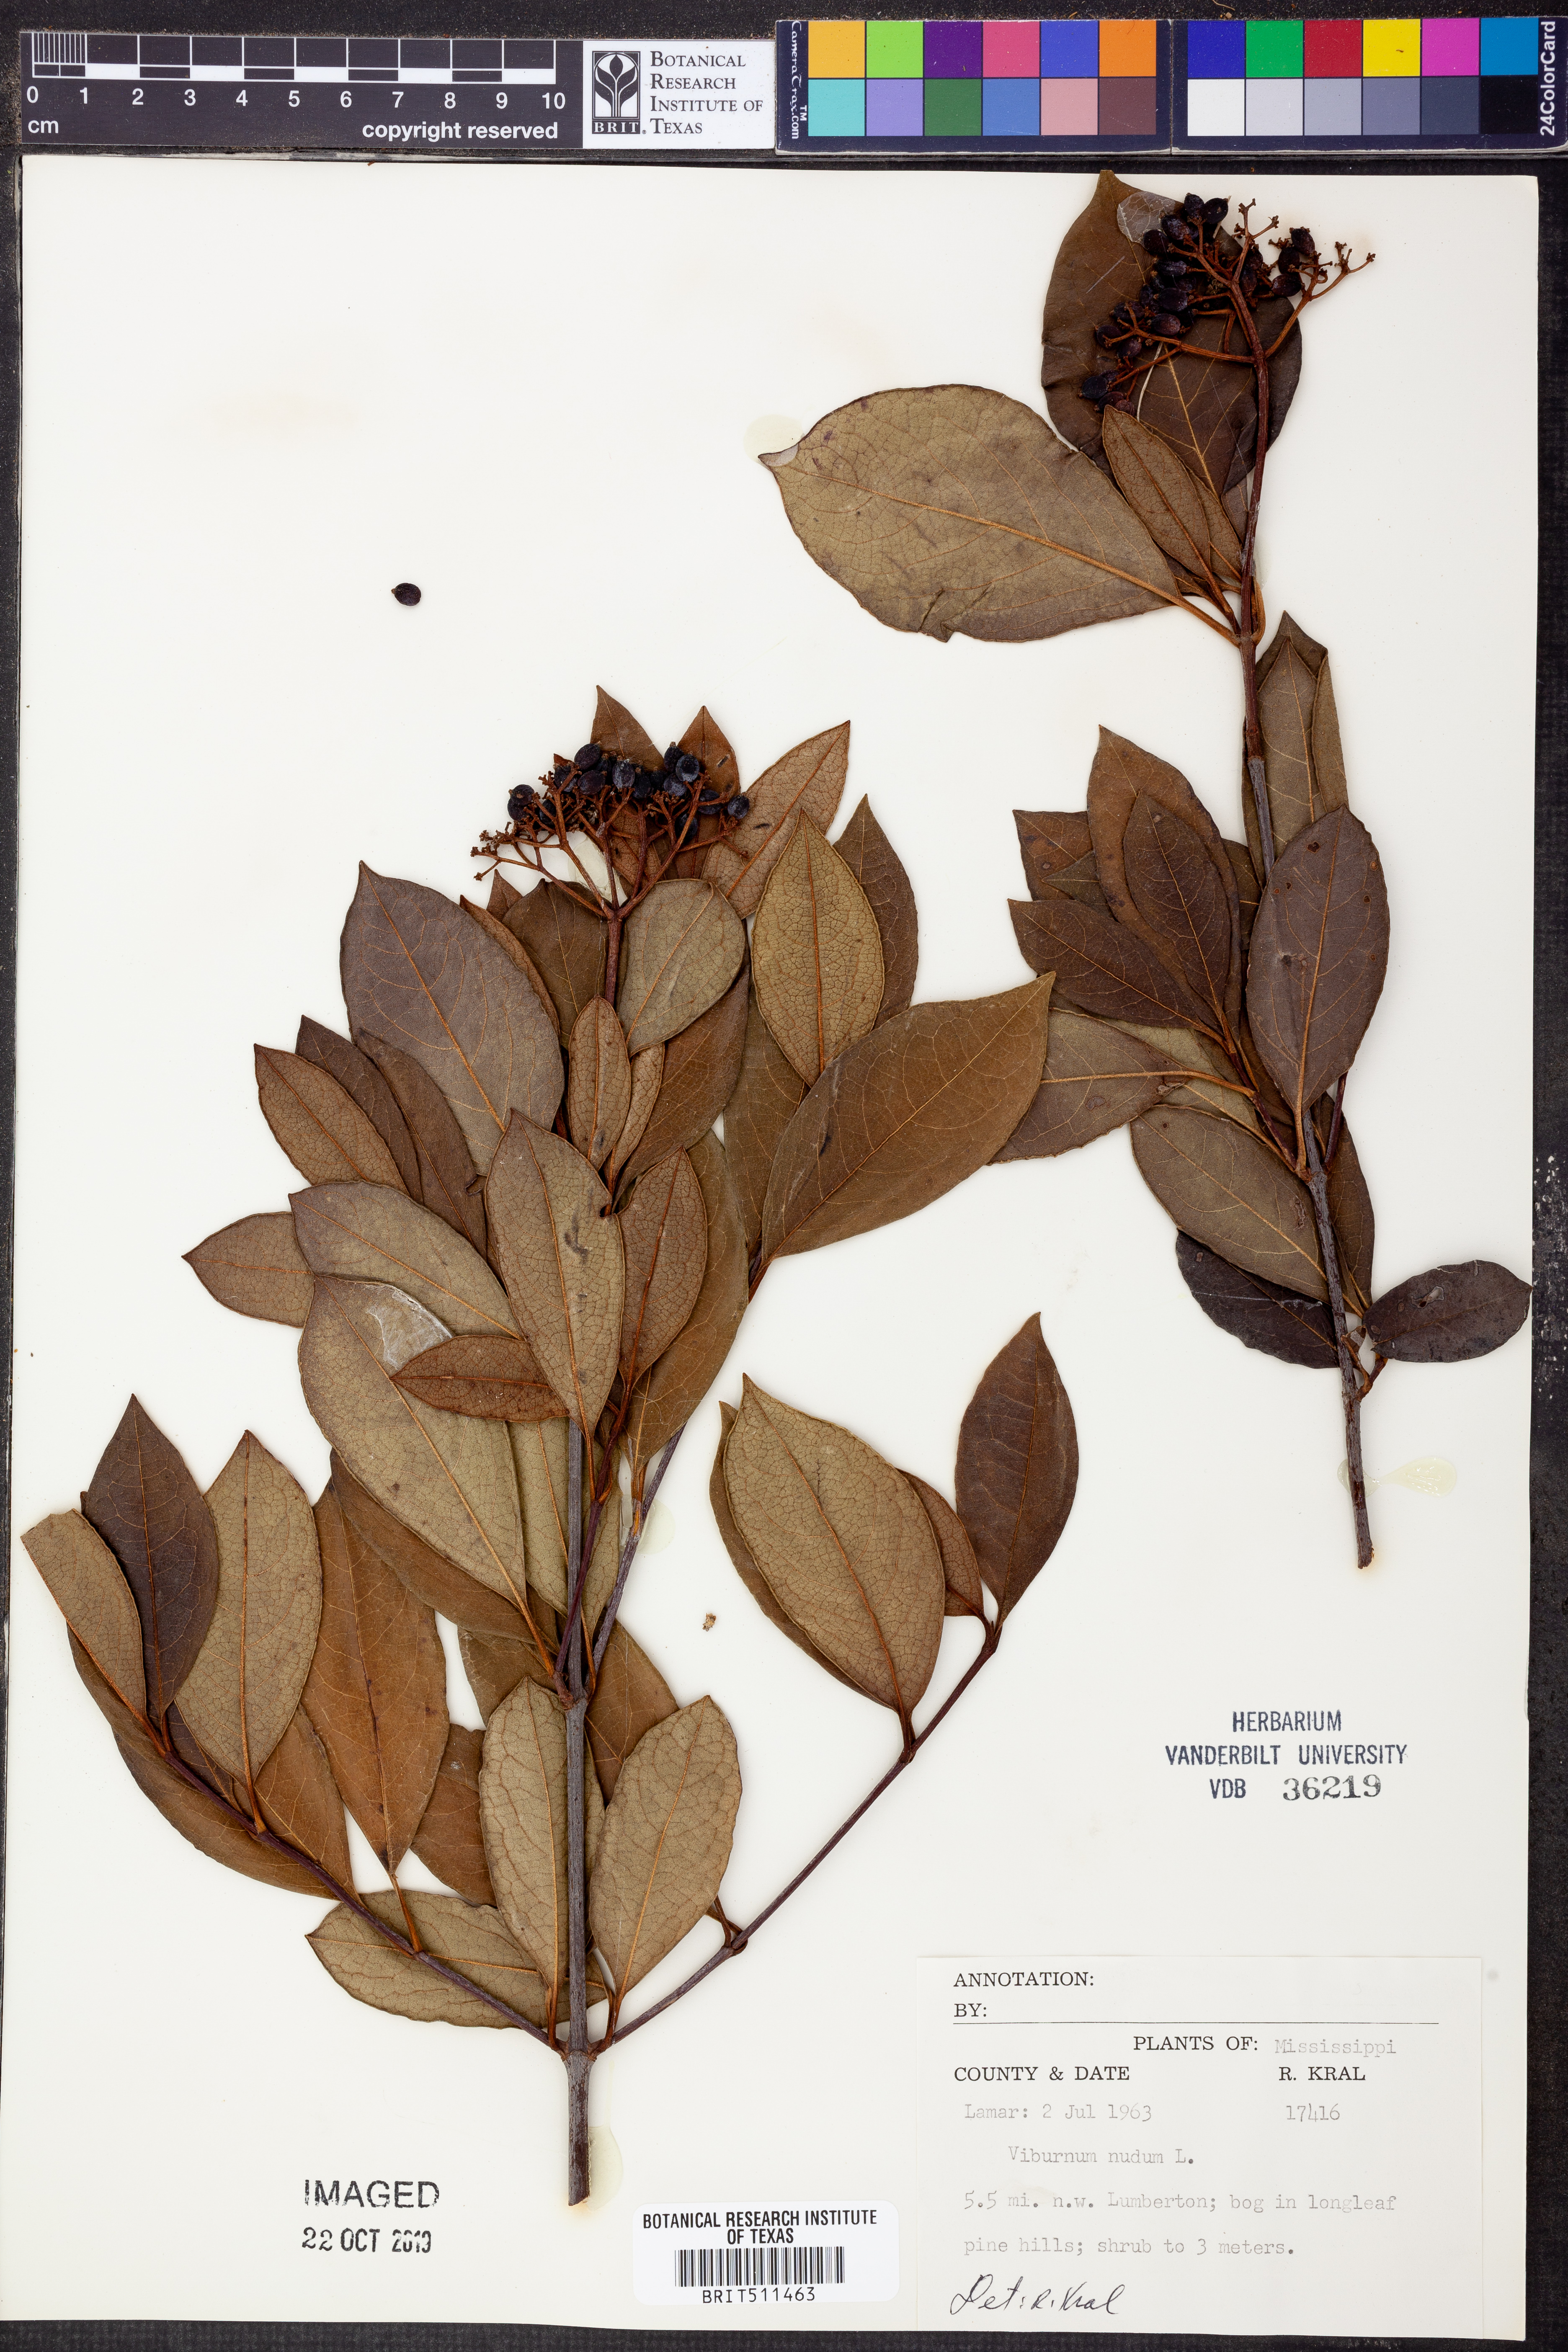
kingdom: Plantae
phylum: Tracheophyta
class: Magnoliopsida
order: Dipsacales
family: Viburnaceae
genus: Viburnum
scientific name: Viburnum nudum
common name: Possum haw
